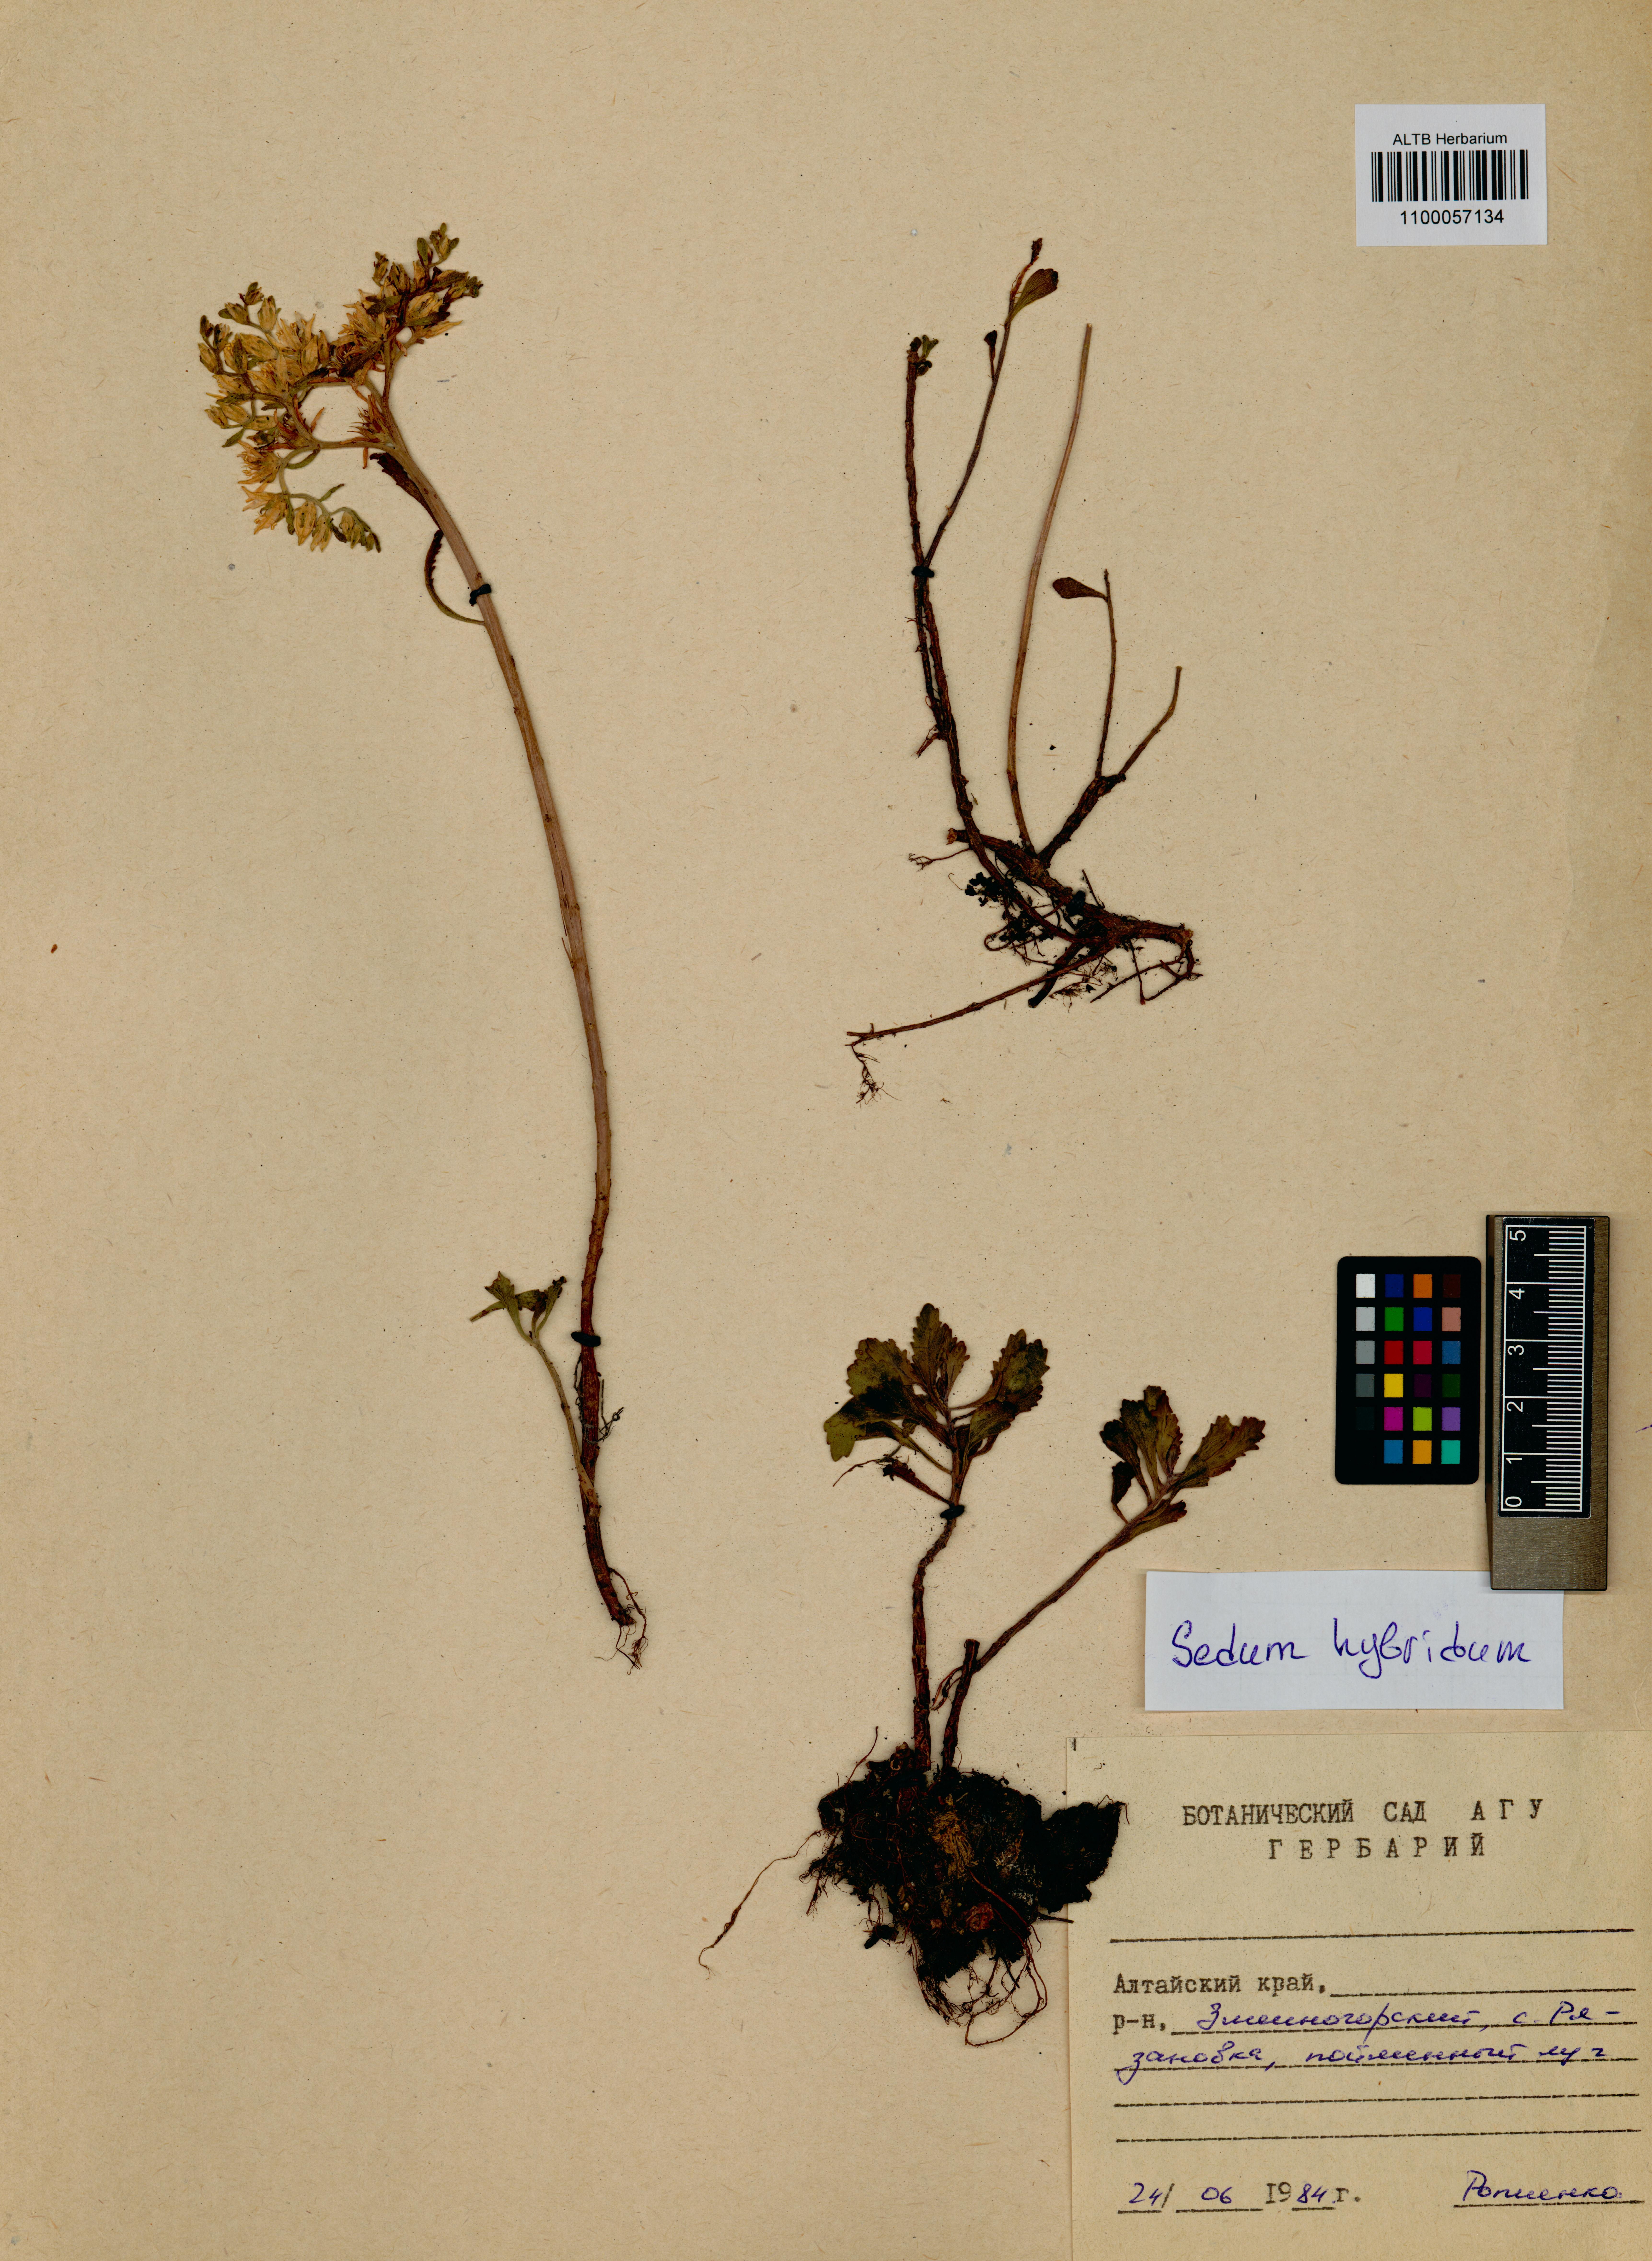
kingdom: Plantae
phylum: Tracheophyta
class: Magnoliopsida
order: Saxifragales
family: Crassulaceae
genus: Phedimus
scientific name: Phedimus hybridus
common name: Hybrid stonecrop
